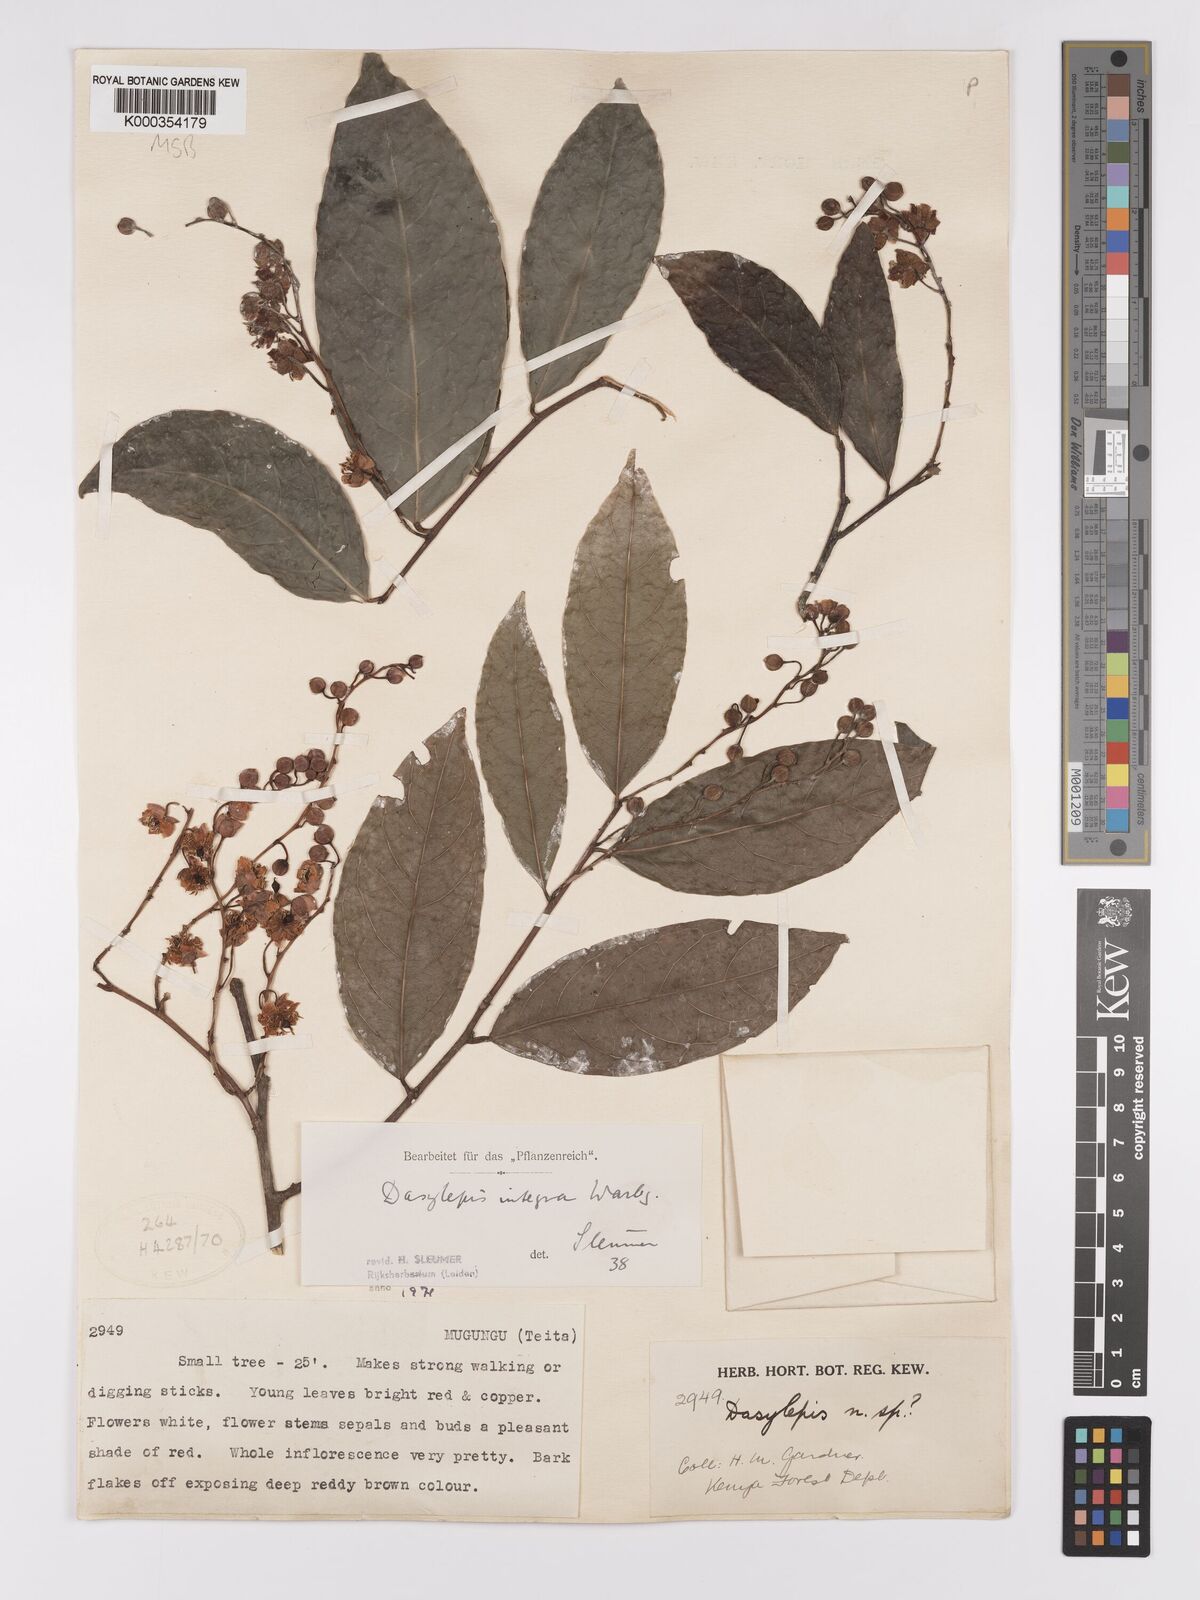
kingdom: Plantae
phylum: Tracheophyta
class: Magnoliopsida
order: Malpighiales
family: Achariaceae
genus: Dasylepis
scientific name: Dasylepis integra
